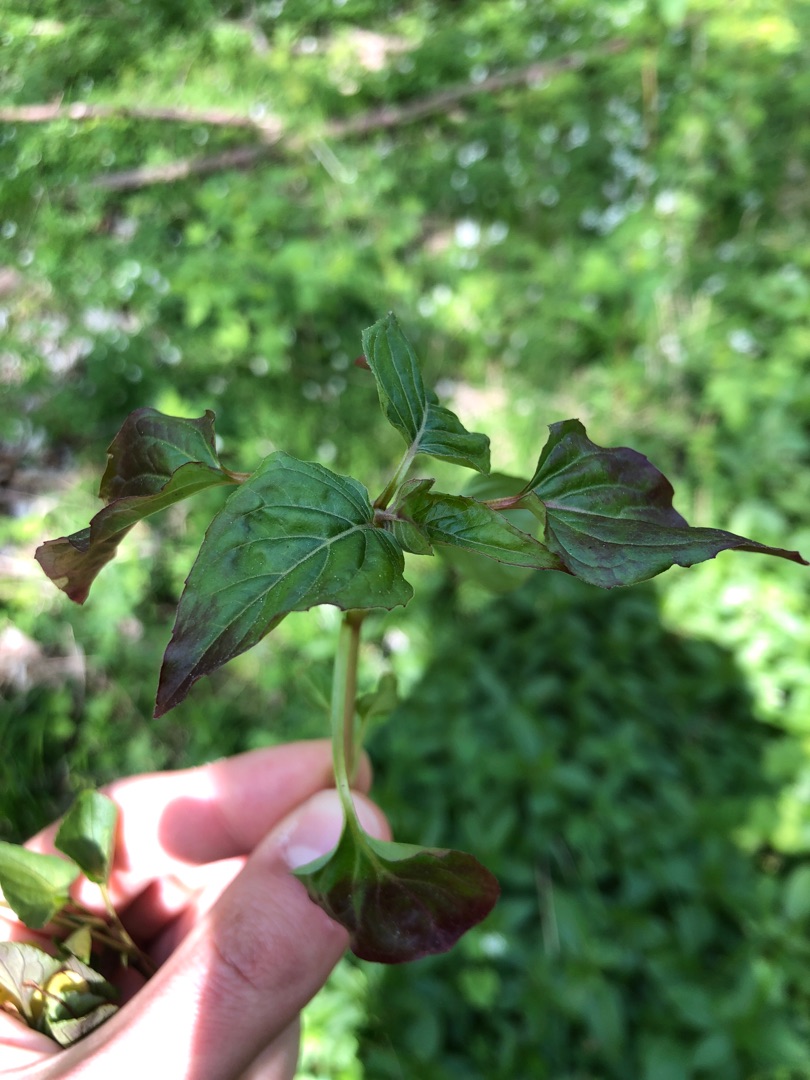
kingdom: Plantae
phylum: Tracheophyta
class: Magnoliopsida
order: Myrtales
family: Onagraceae
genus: Circaea
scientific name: Circaea lutetiana
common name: Dunet steffensurt
